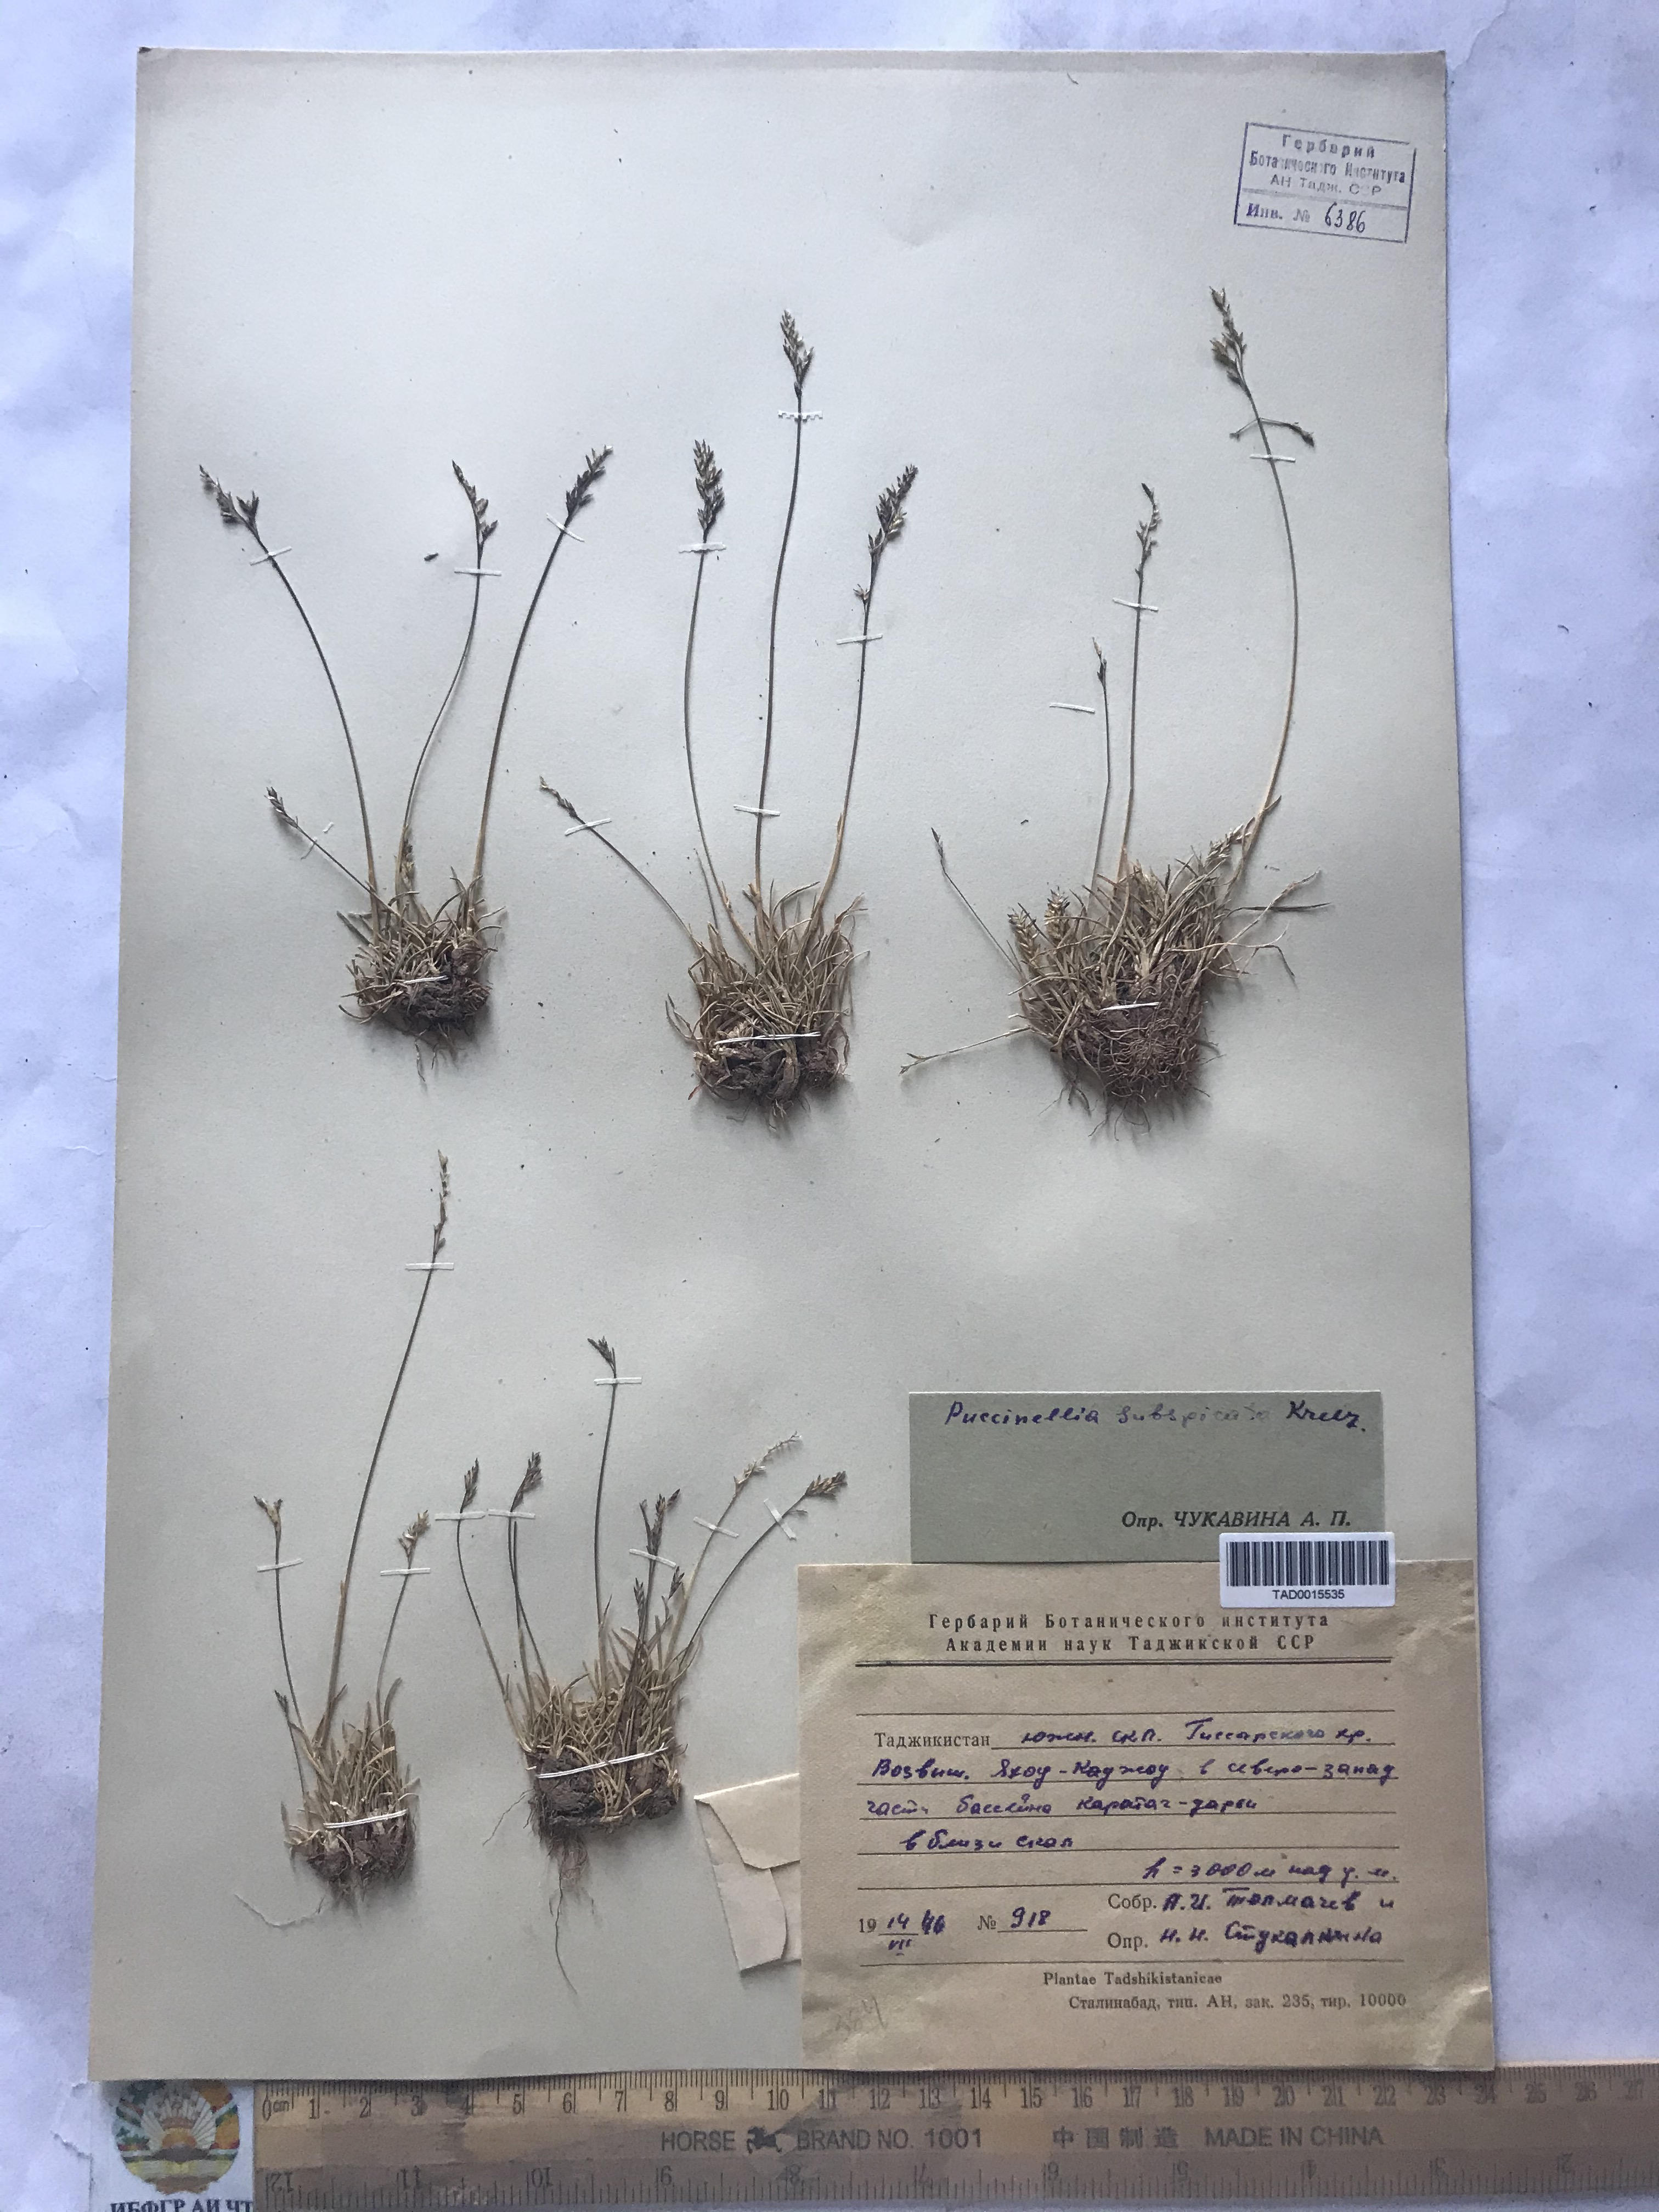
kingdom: Plantae
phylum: Tracheophyta
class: Liliopsida
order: Poales
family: Poaceae
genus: Puccinellia
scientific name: Puccinellia subspicata
